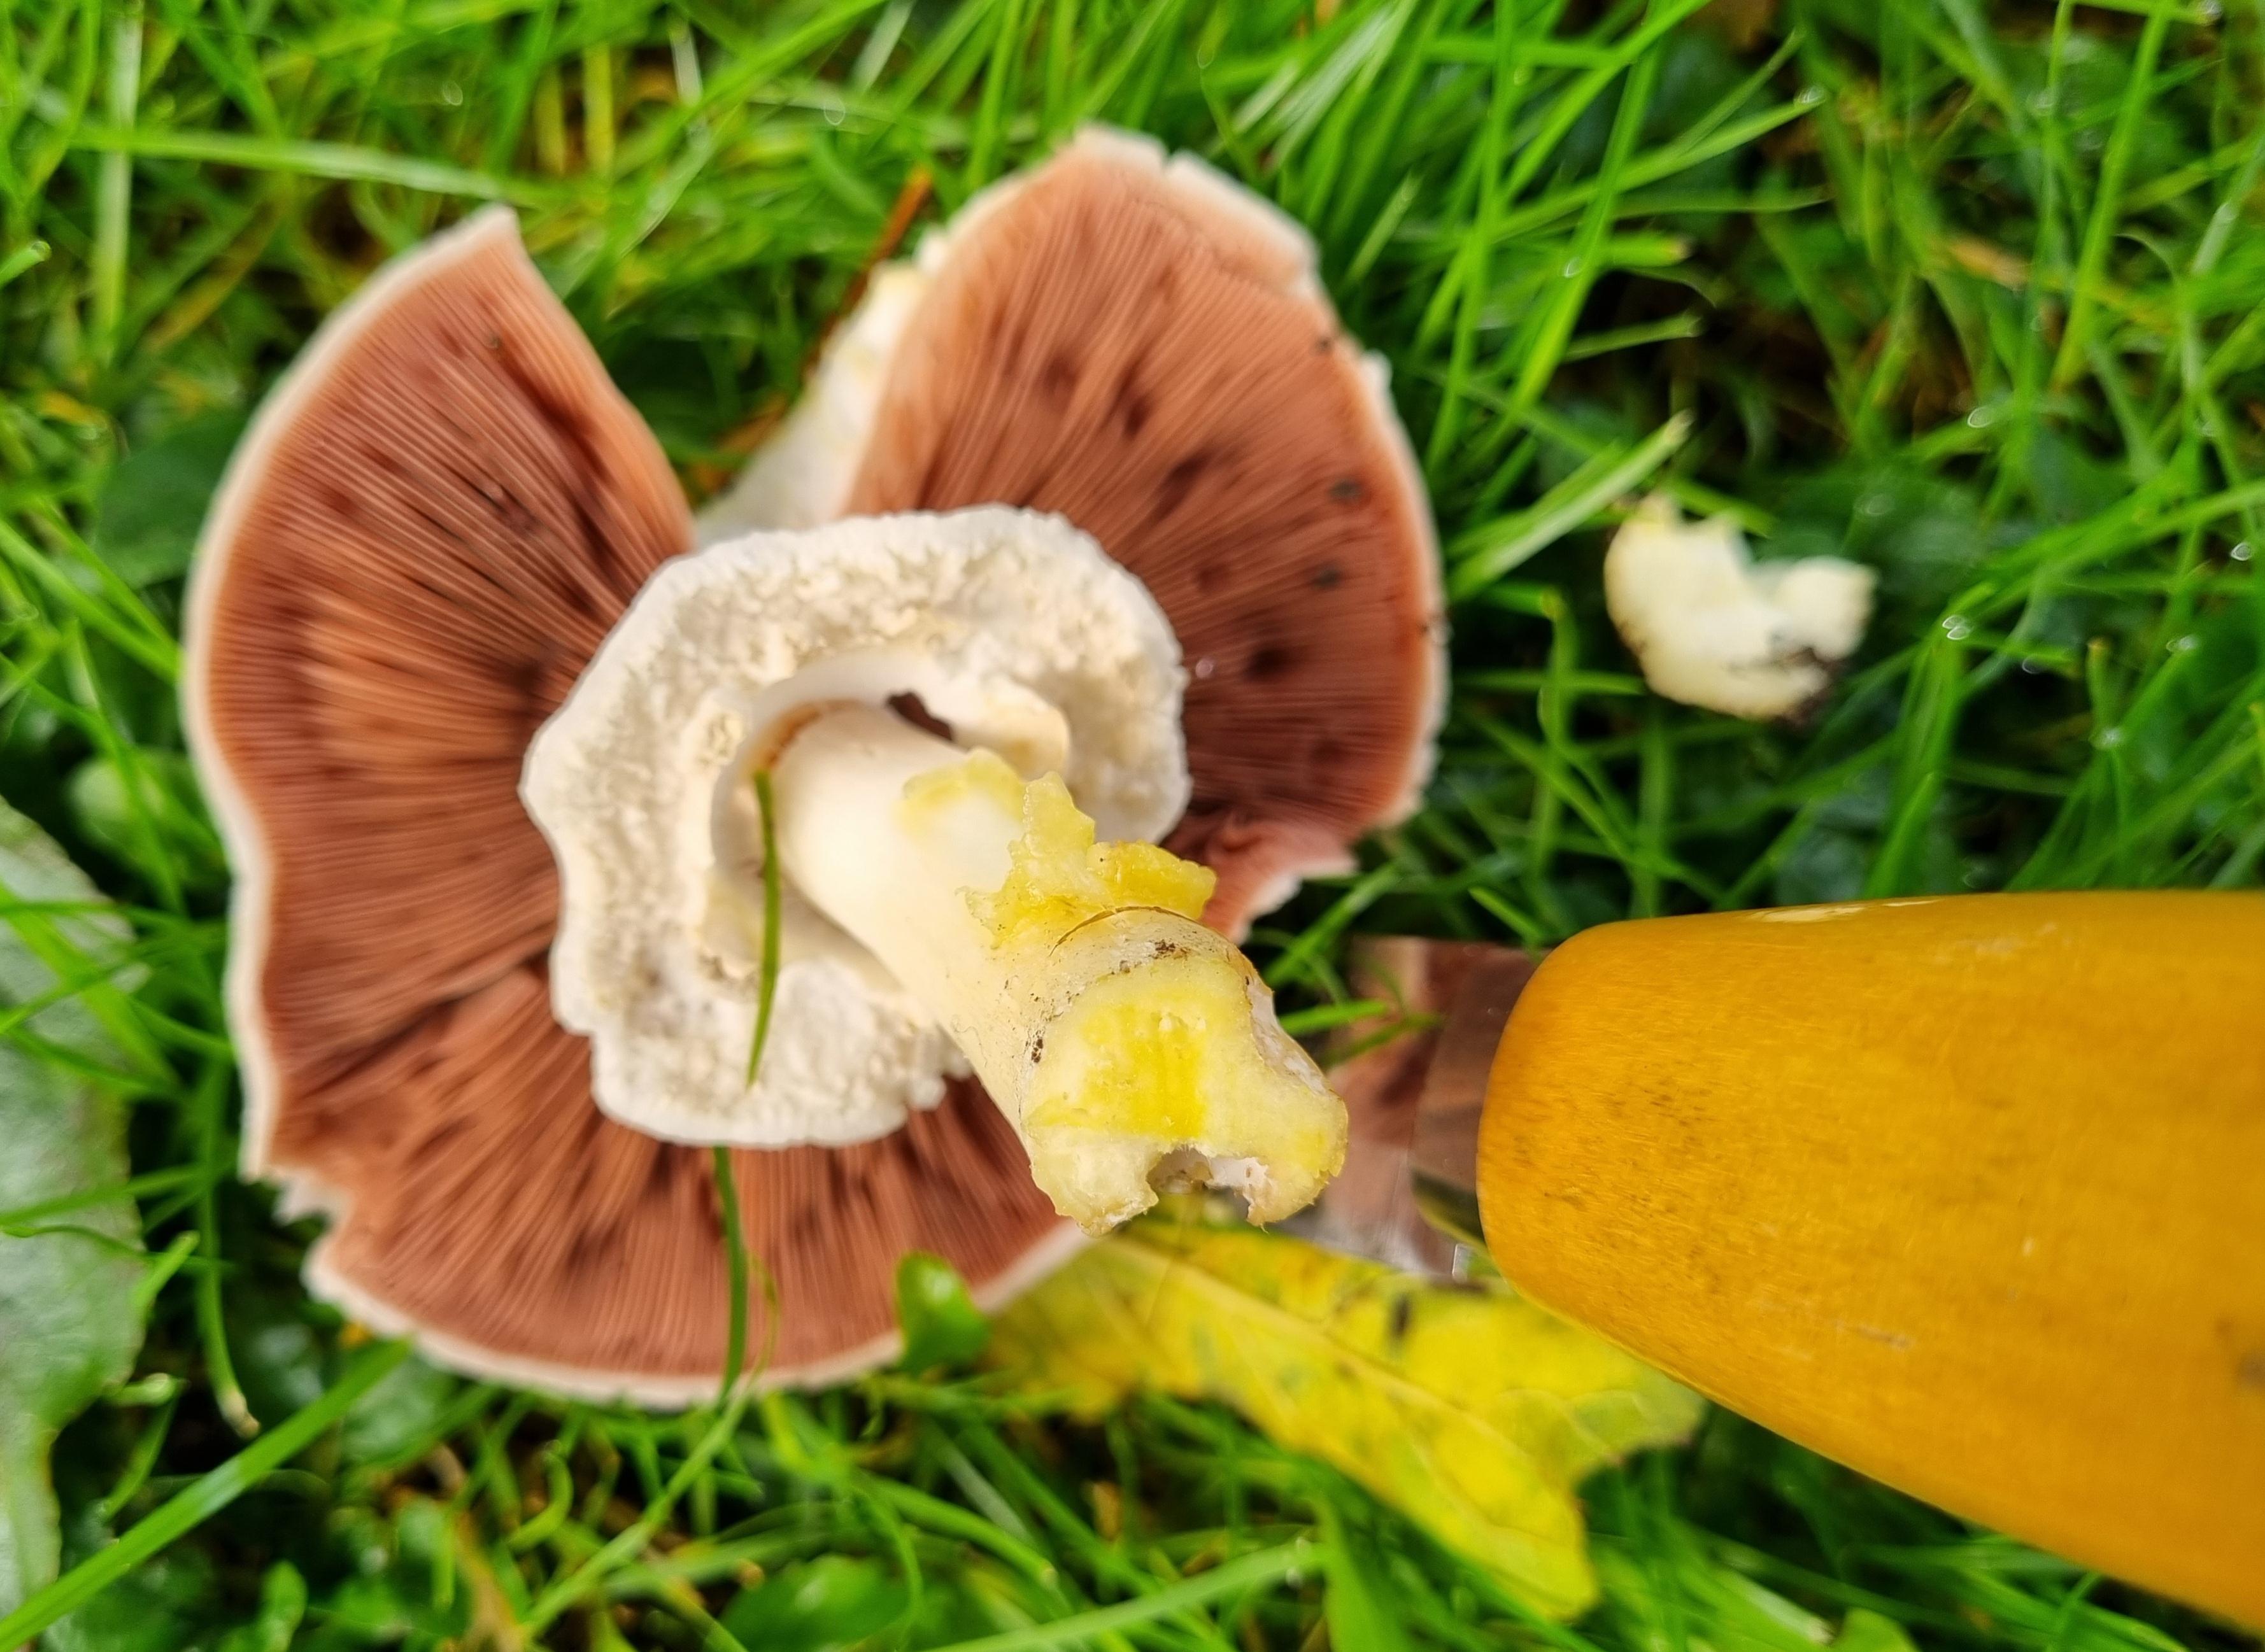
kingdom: Fungi
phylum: Basidiomycota
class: Agaricomycetes
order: Agaricales
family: Agaricaceae
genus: Agaricus
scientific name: Agaricus xanthodermus
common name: karbol-champignon
